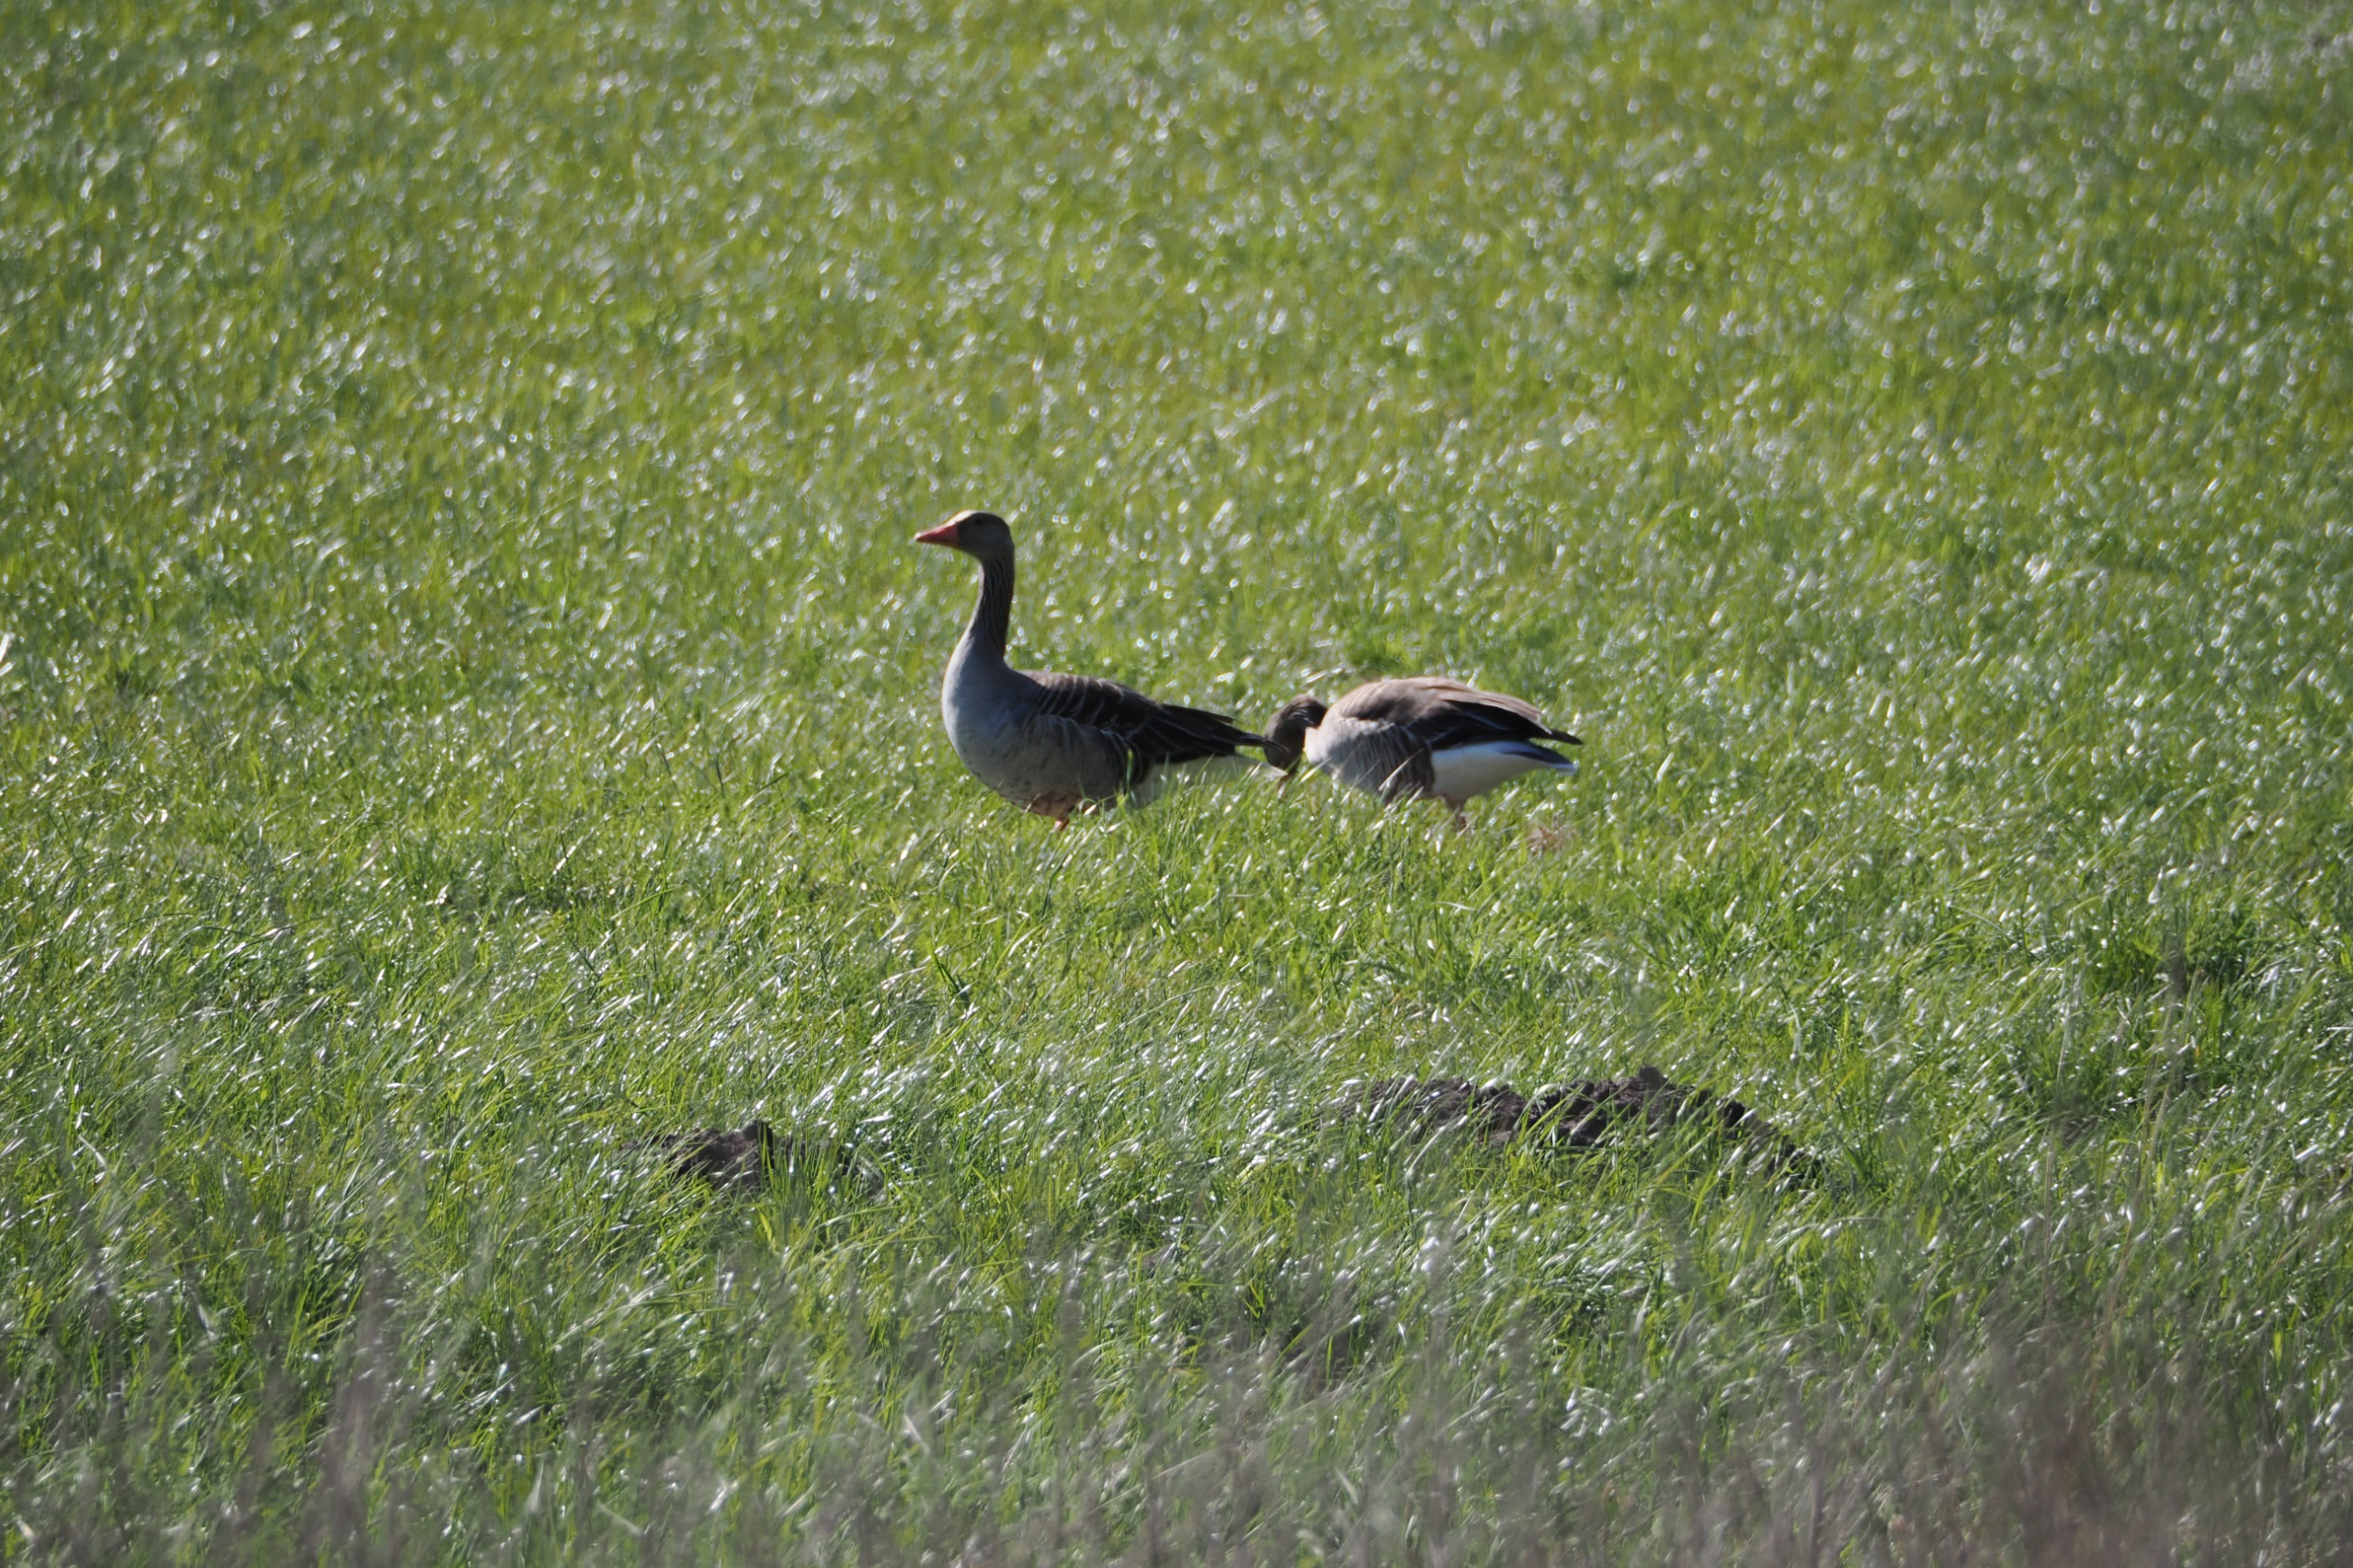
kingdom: Animalia
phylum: Chordata
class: Aves
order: Anseriformes
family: Anatidae
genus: Anser
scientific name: Anser anser
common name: Grågås
